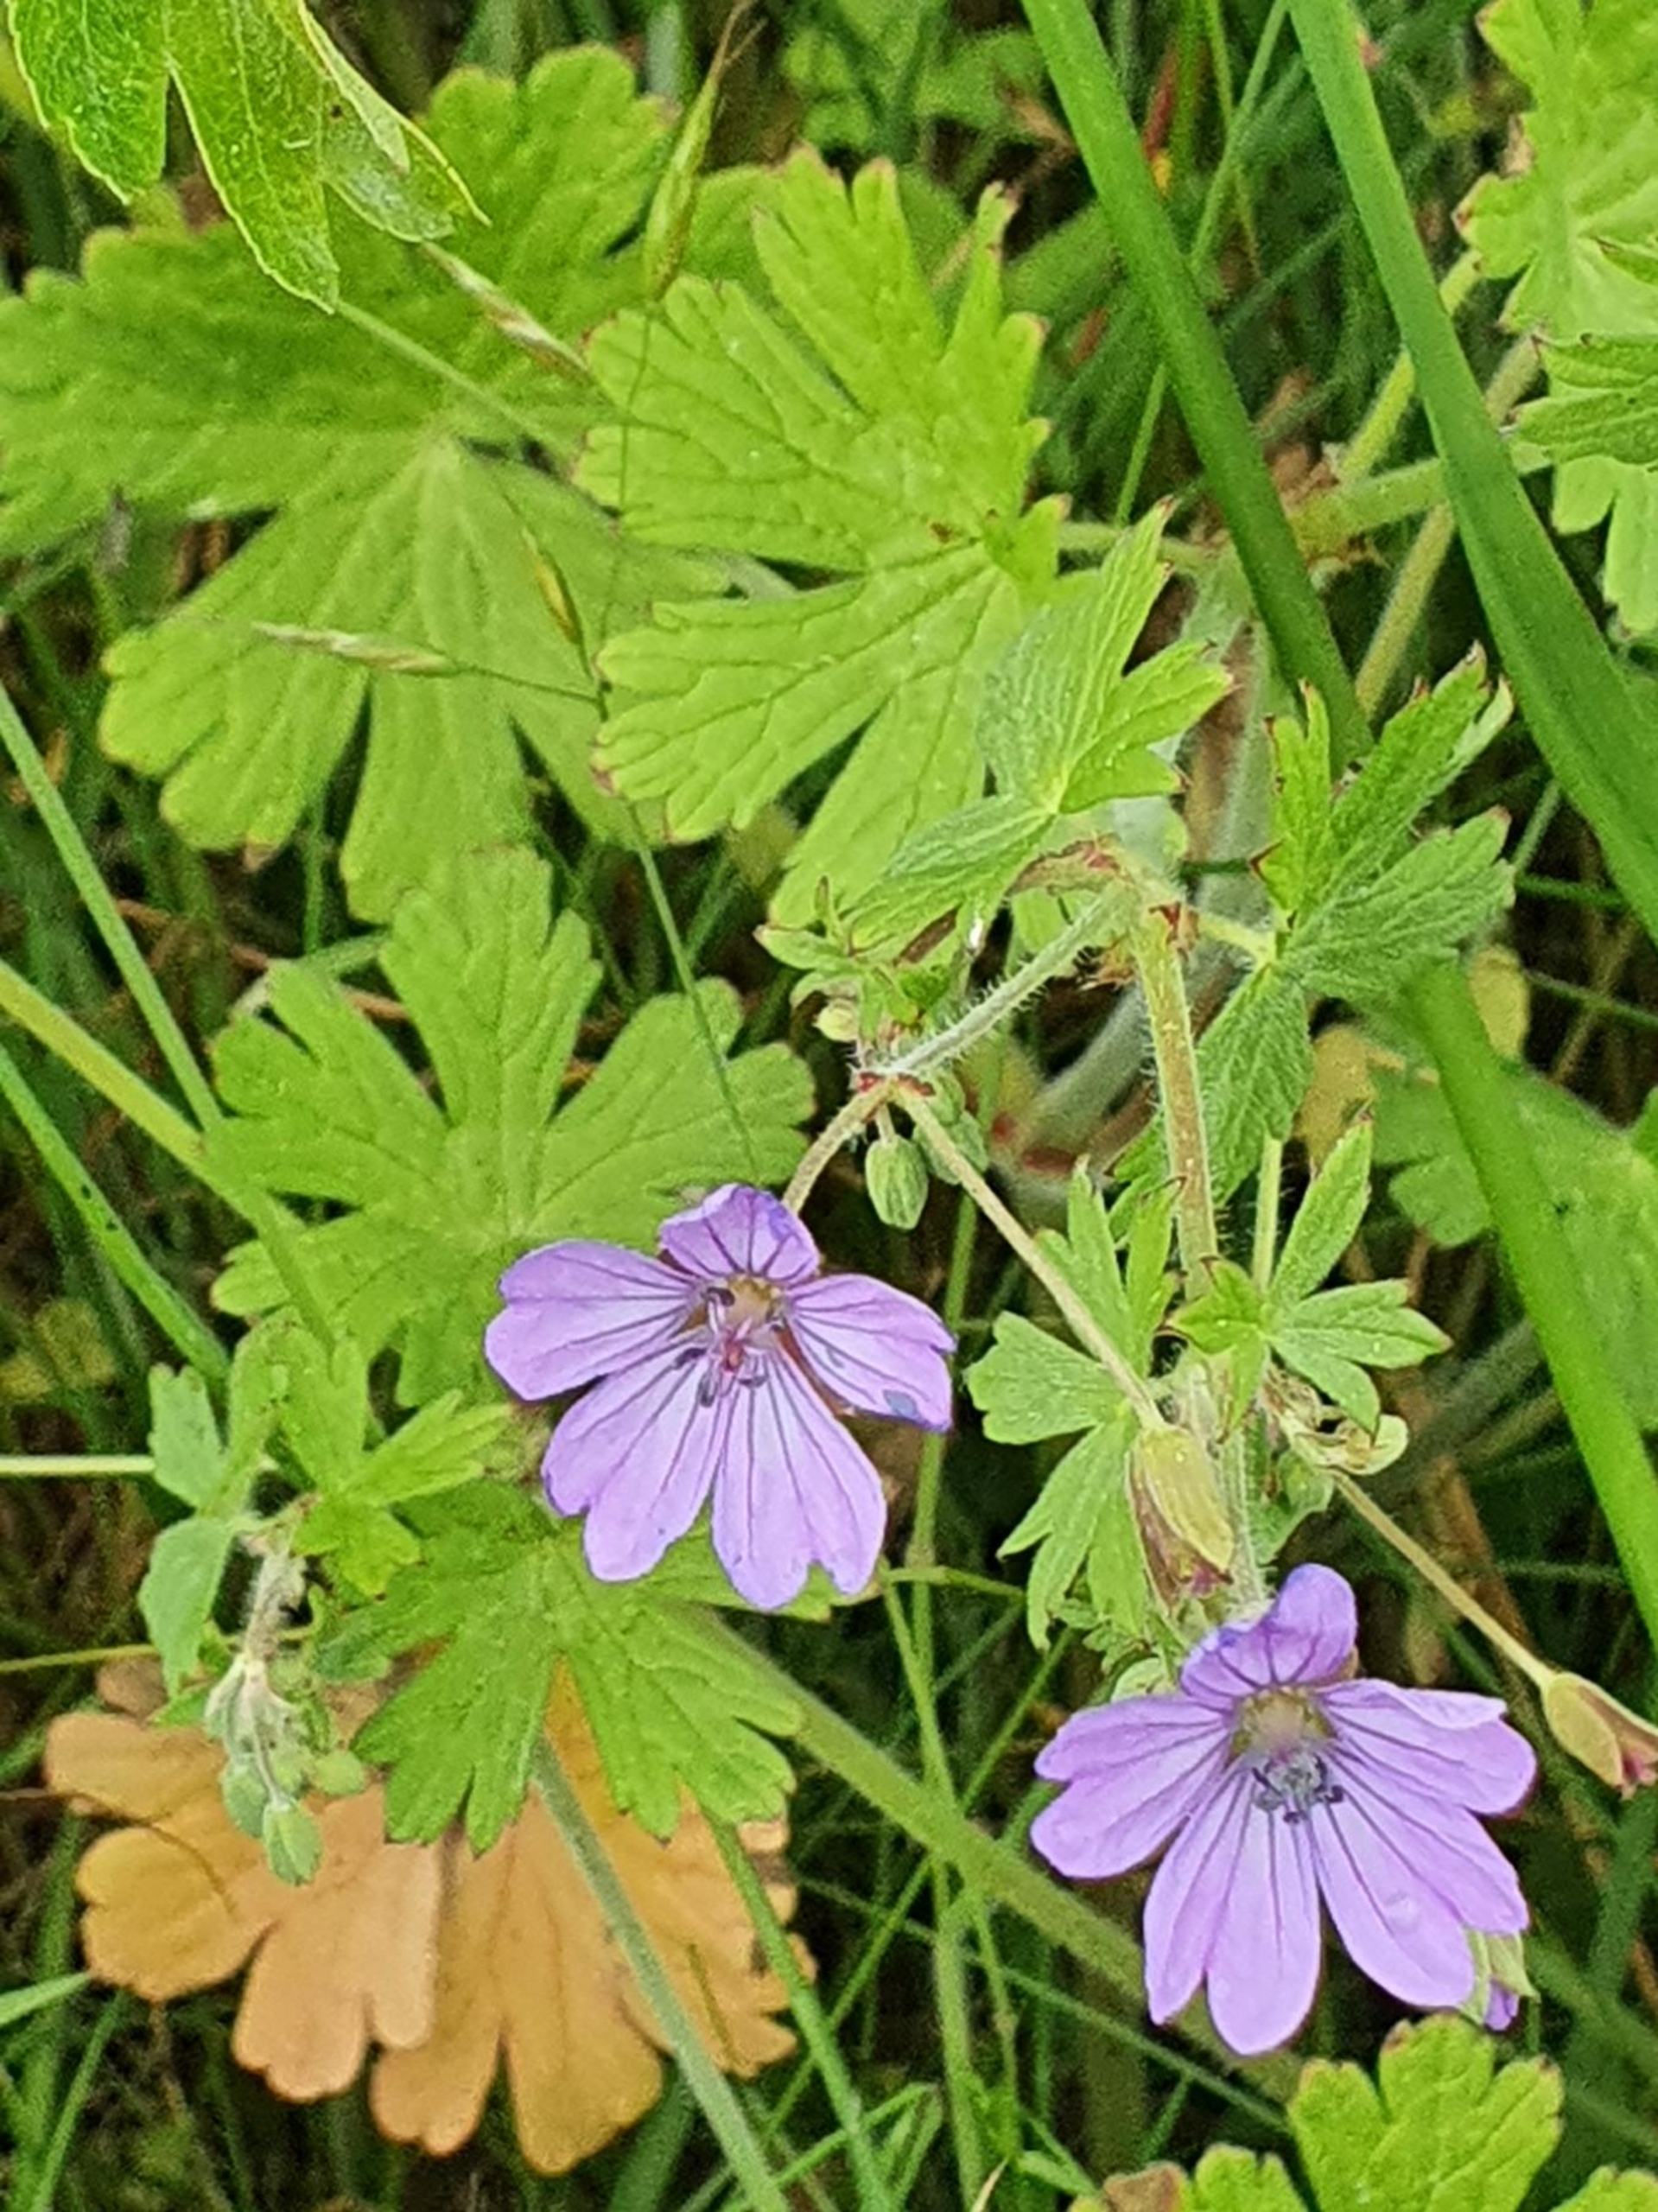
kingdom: Plantae
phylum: Tracheophyta
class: Magnoliopsida
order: Geraniales
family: Geraniaceae
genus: Geranium
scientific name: Geranium pyrenaicum
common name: Pyrenæisk storkenæb
